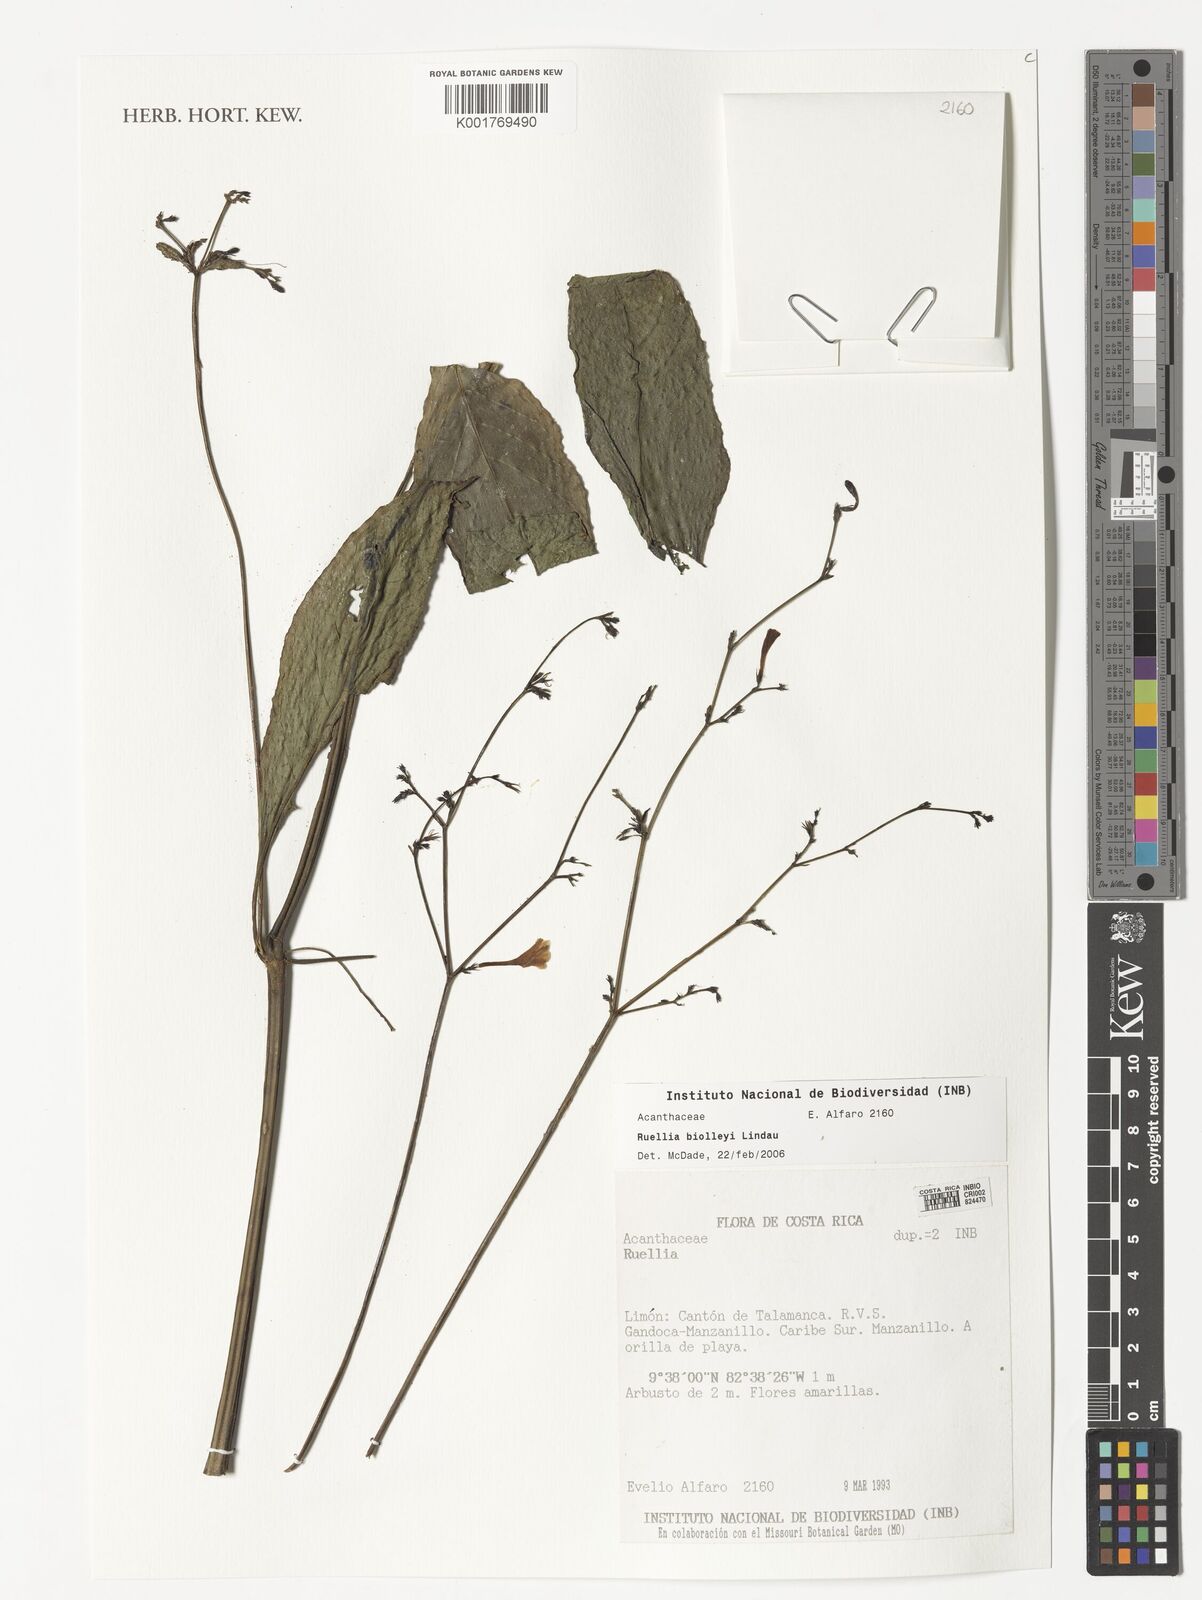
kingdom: Plantae
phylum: Tracheophyta
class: Magnoliopsida
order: Lamiales
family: Acanthaceae
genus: Ruellia
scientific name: Ruellia biolleyi
